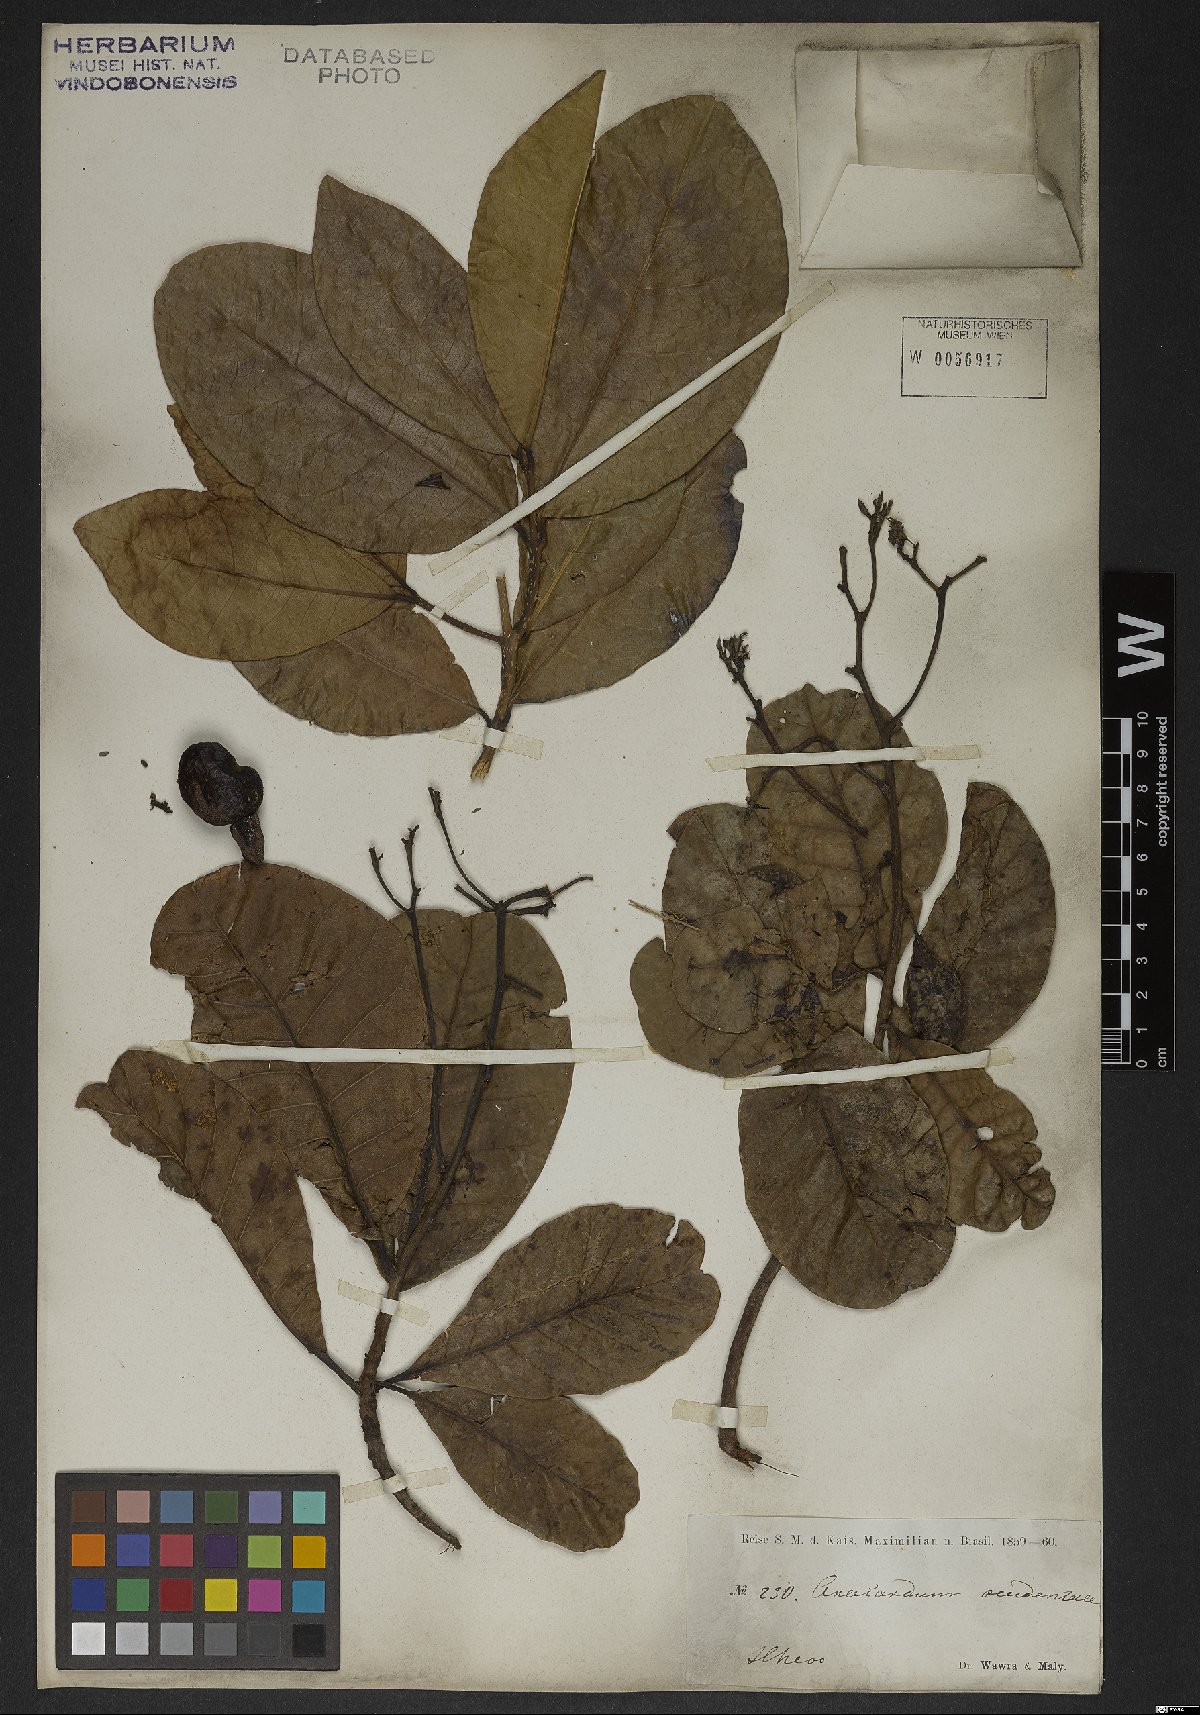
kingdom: Plantae
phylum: Tracheophyta
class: Magnoliopsida
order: Sapindales
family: Anacardiaceae
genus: Anacardium
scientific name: Anacardium occidentale
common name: Cashew
